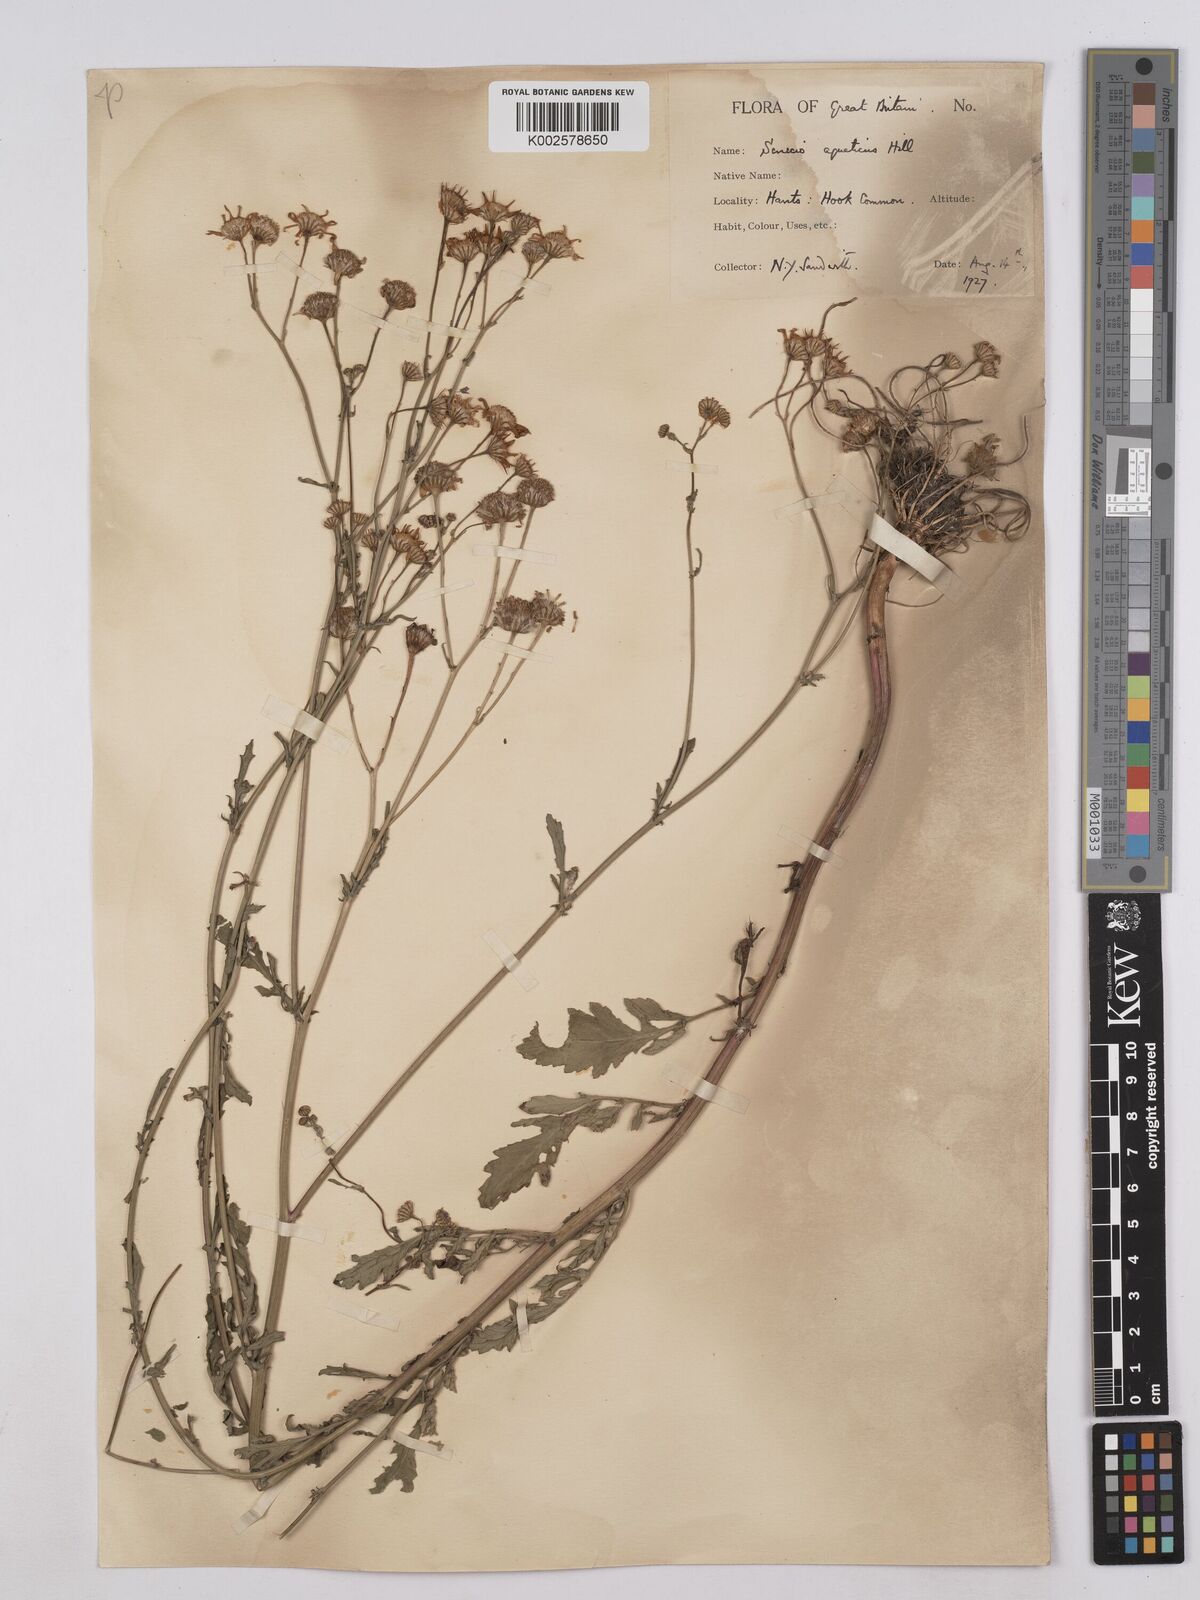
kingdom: Plantae
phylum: Tracheophyta
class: Magnoliopsida
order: Asterales
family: Asteraceae
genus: Jacobaea
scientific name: Jacobaea aquatica
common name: Water ragwort
